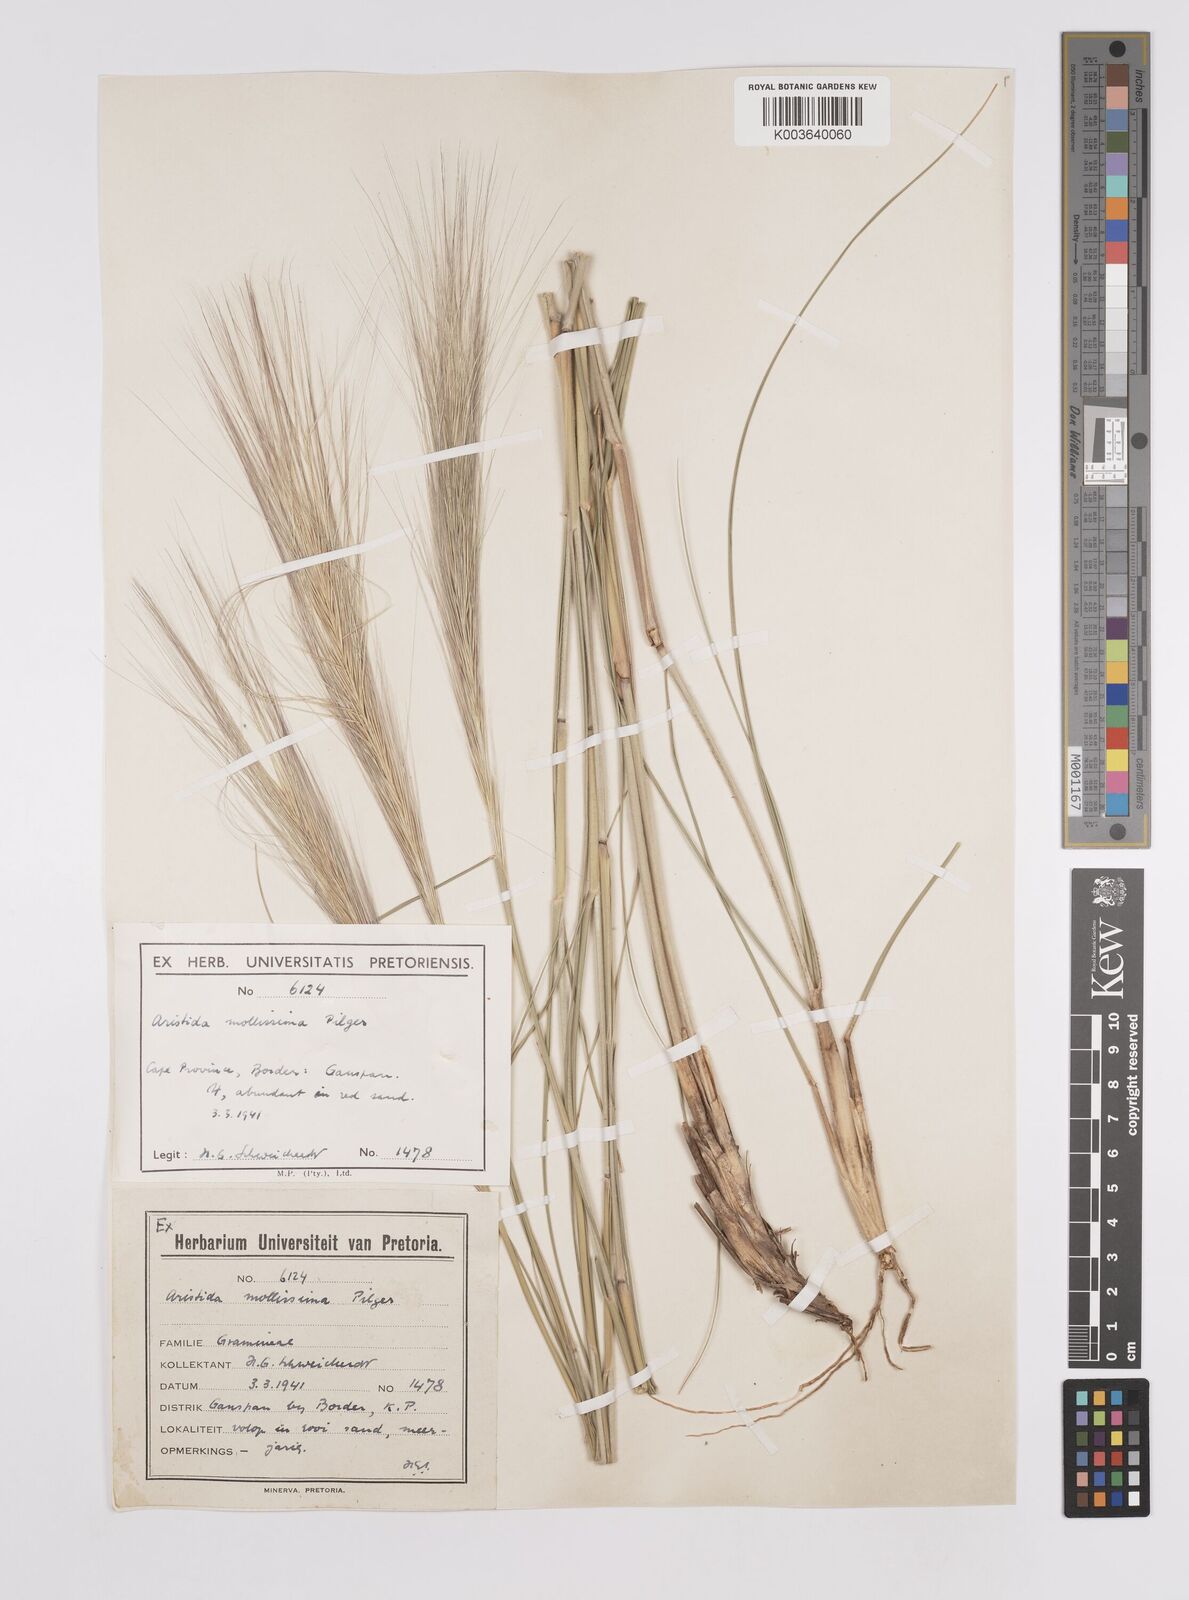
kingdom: Plantae
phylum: Tracheophyta
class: Liliopsida
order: Poales
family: Poaceae
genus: Aristida
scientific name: Aristida mollissima
